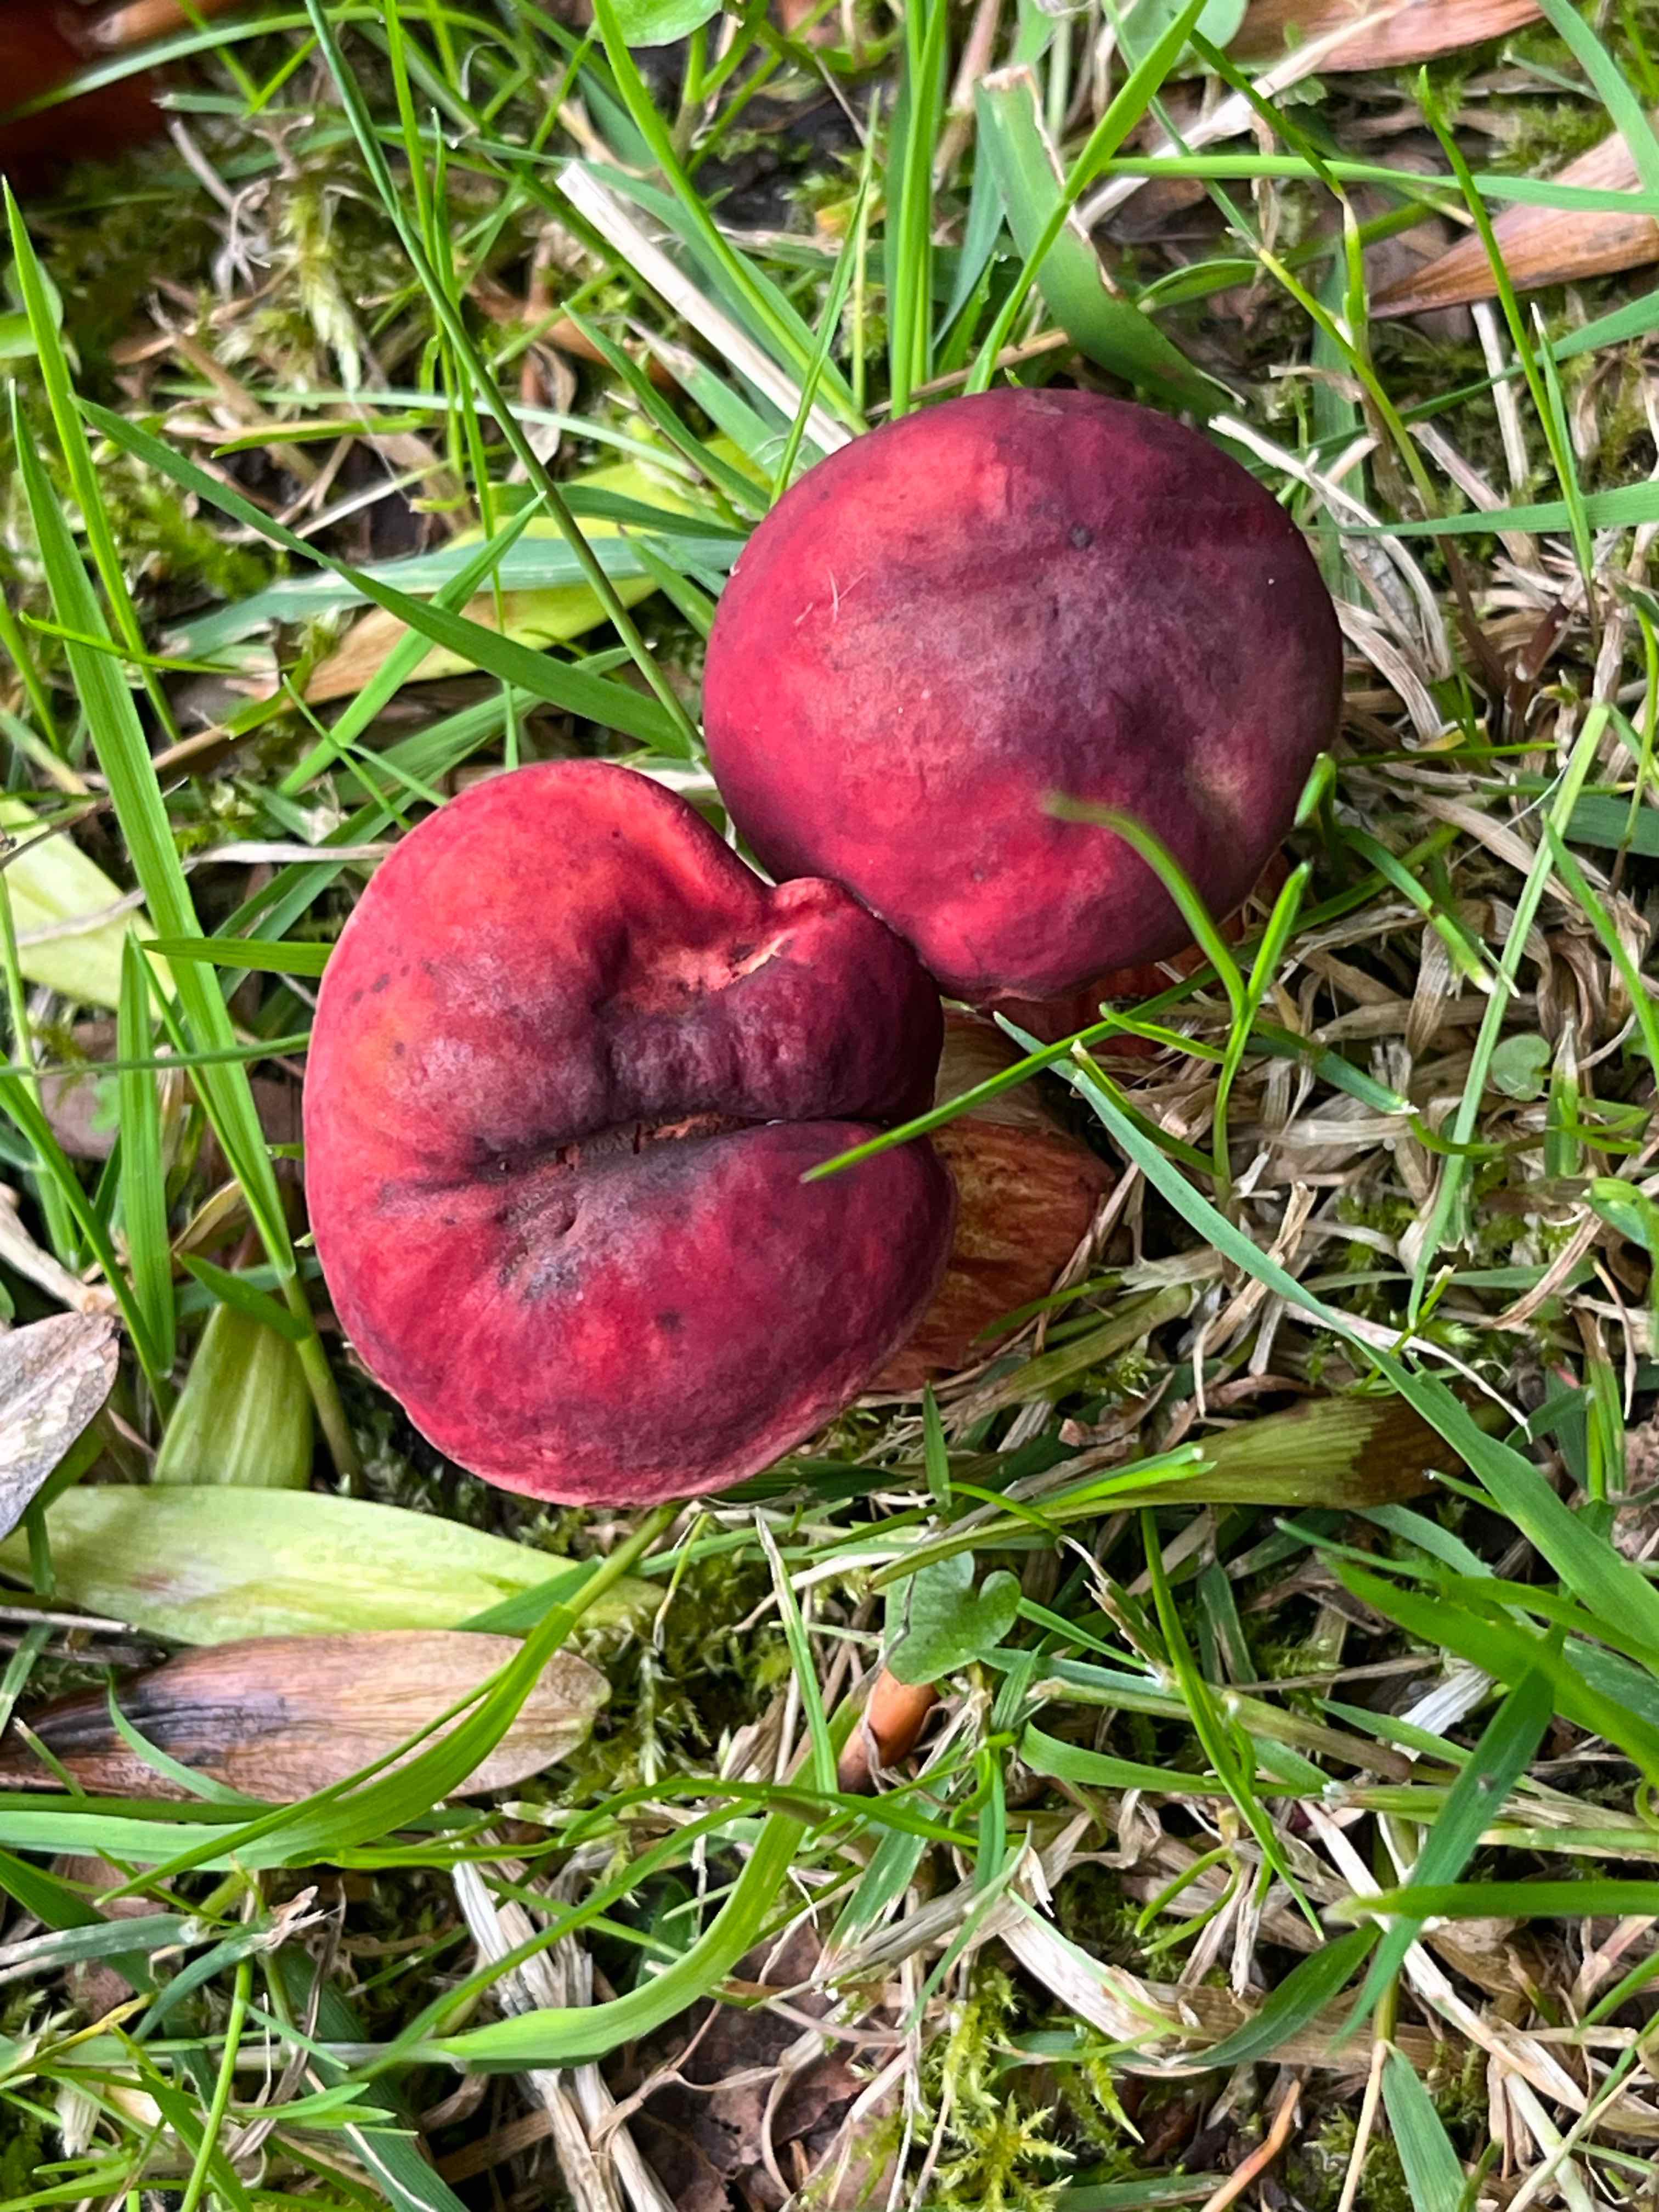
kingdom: Fungi
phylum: Basidiomycota
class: Agaricomycetes
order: Boletales
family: Boletaceae
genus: Hortiboletus
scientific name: Hortiboletus rubellus
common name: blodrød rørhat
